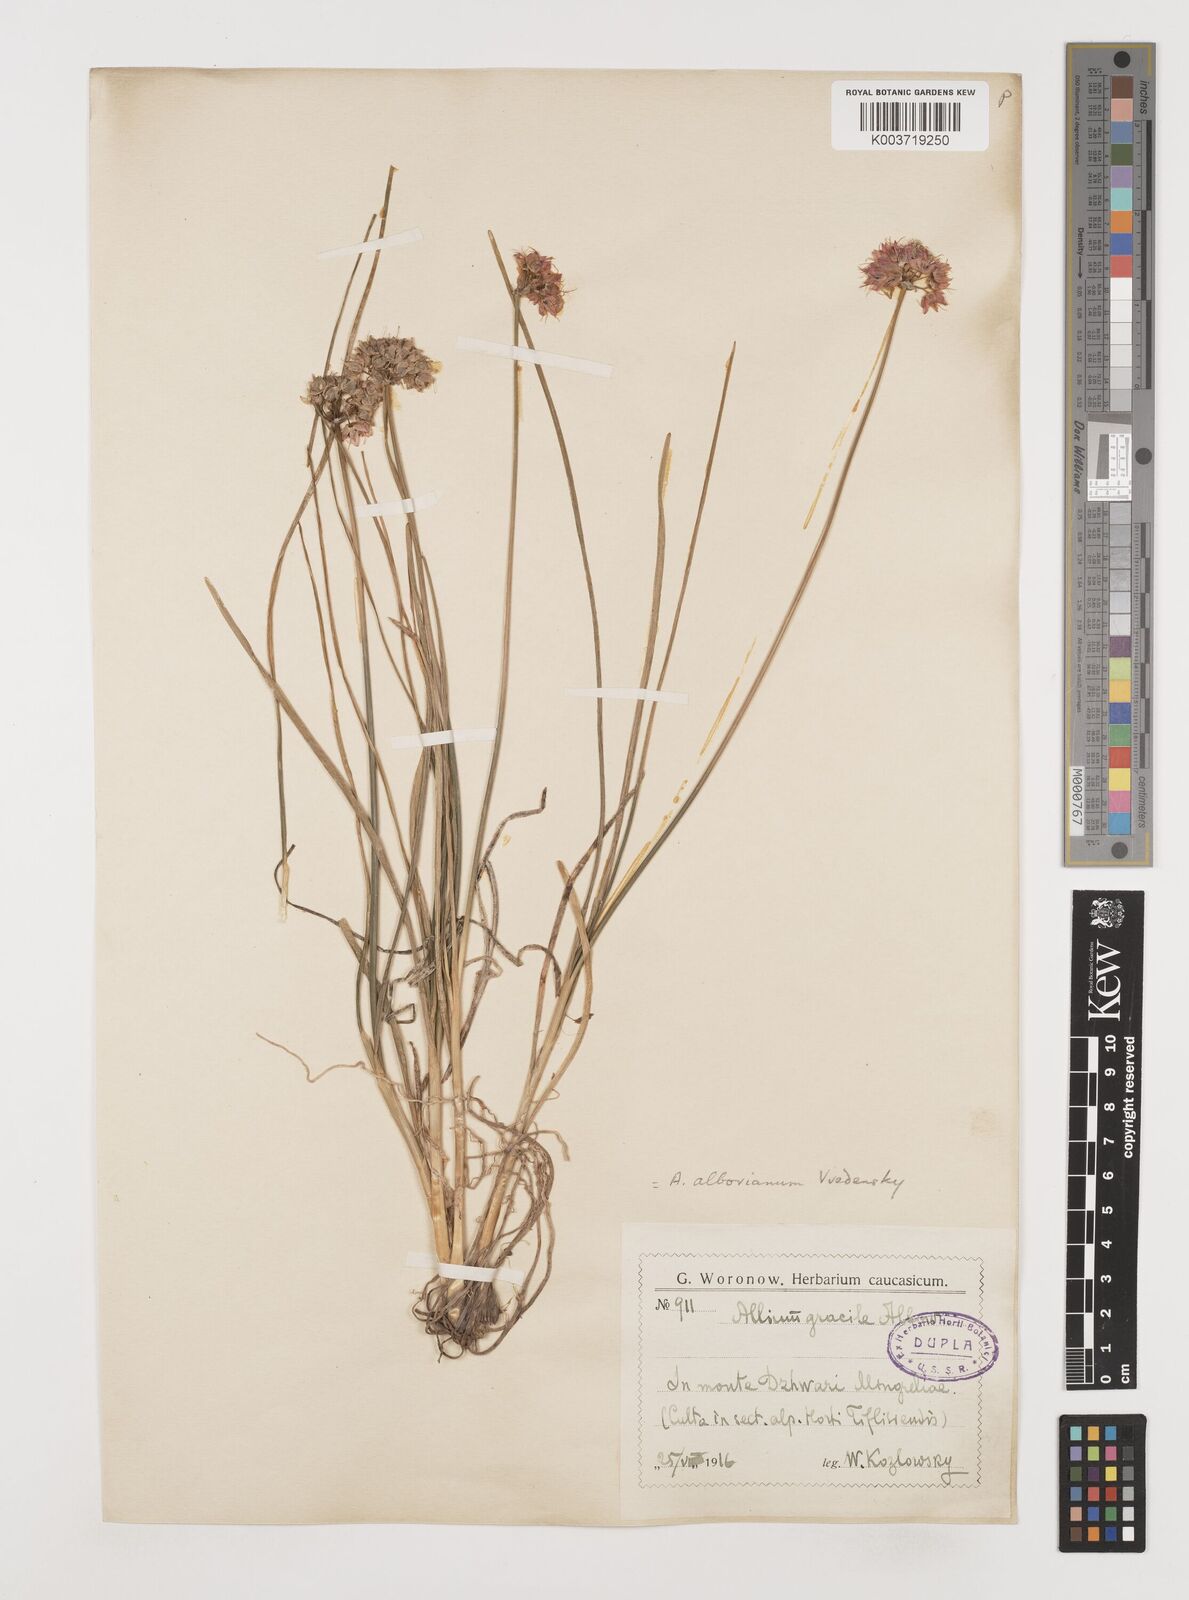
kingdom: Plantae
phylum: Tracheophyta
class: Liliopsida
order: Asparagales
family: Amaryllidaceae
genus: Allium
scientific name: Allium albovianum
